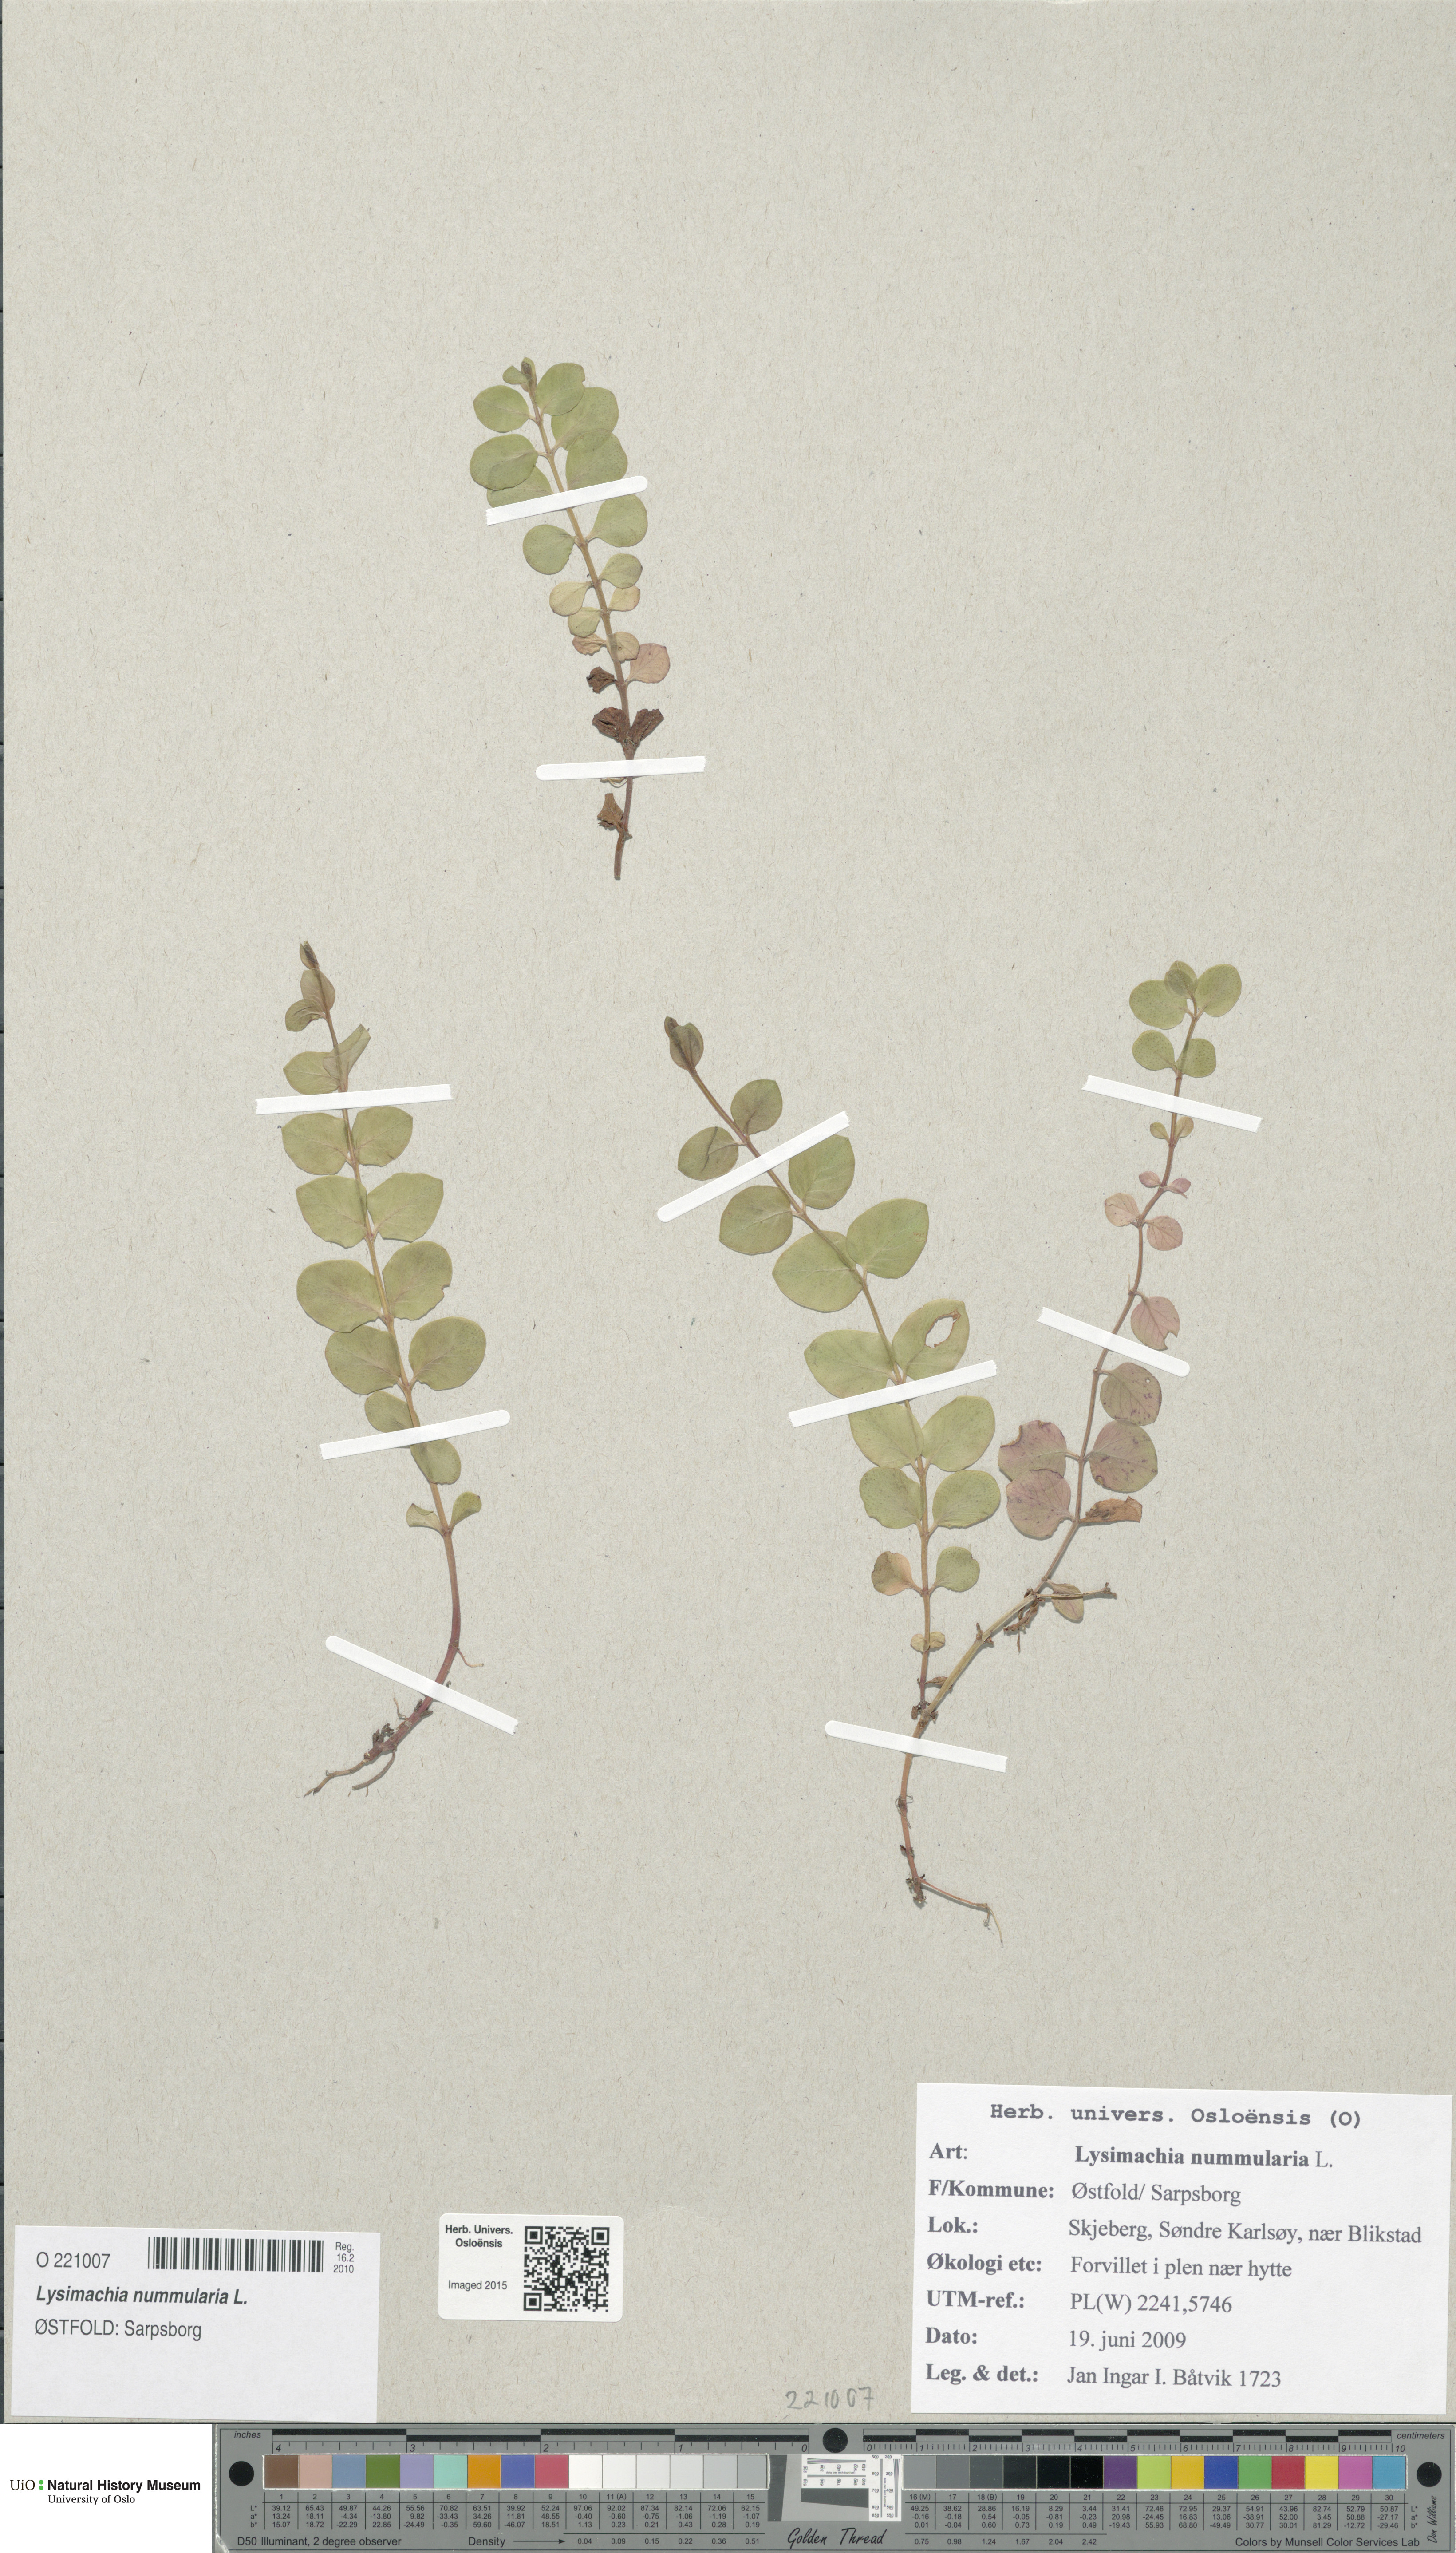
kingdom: Plantae
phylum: Tracheophyta
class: Magnoliopsida
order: Ericales
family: Primulaceae
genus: Lysimachia
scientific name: Lysimachia nummularia
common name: Moneywort
